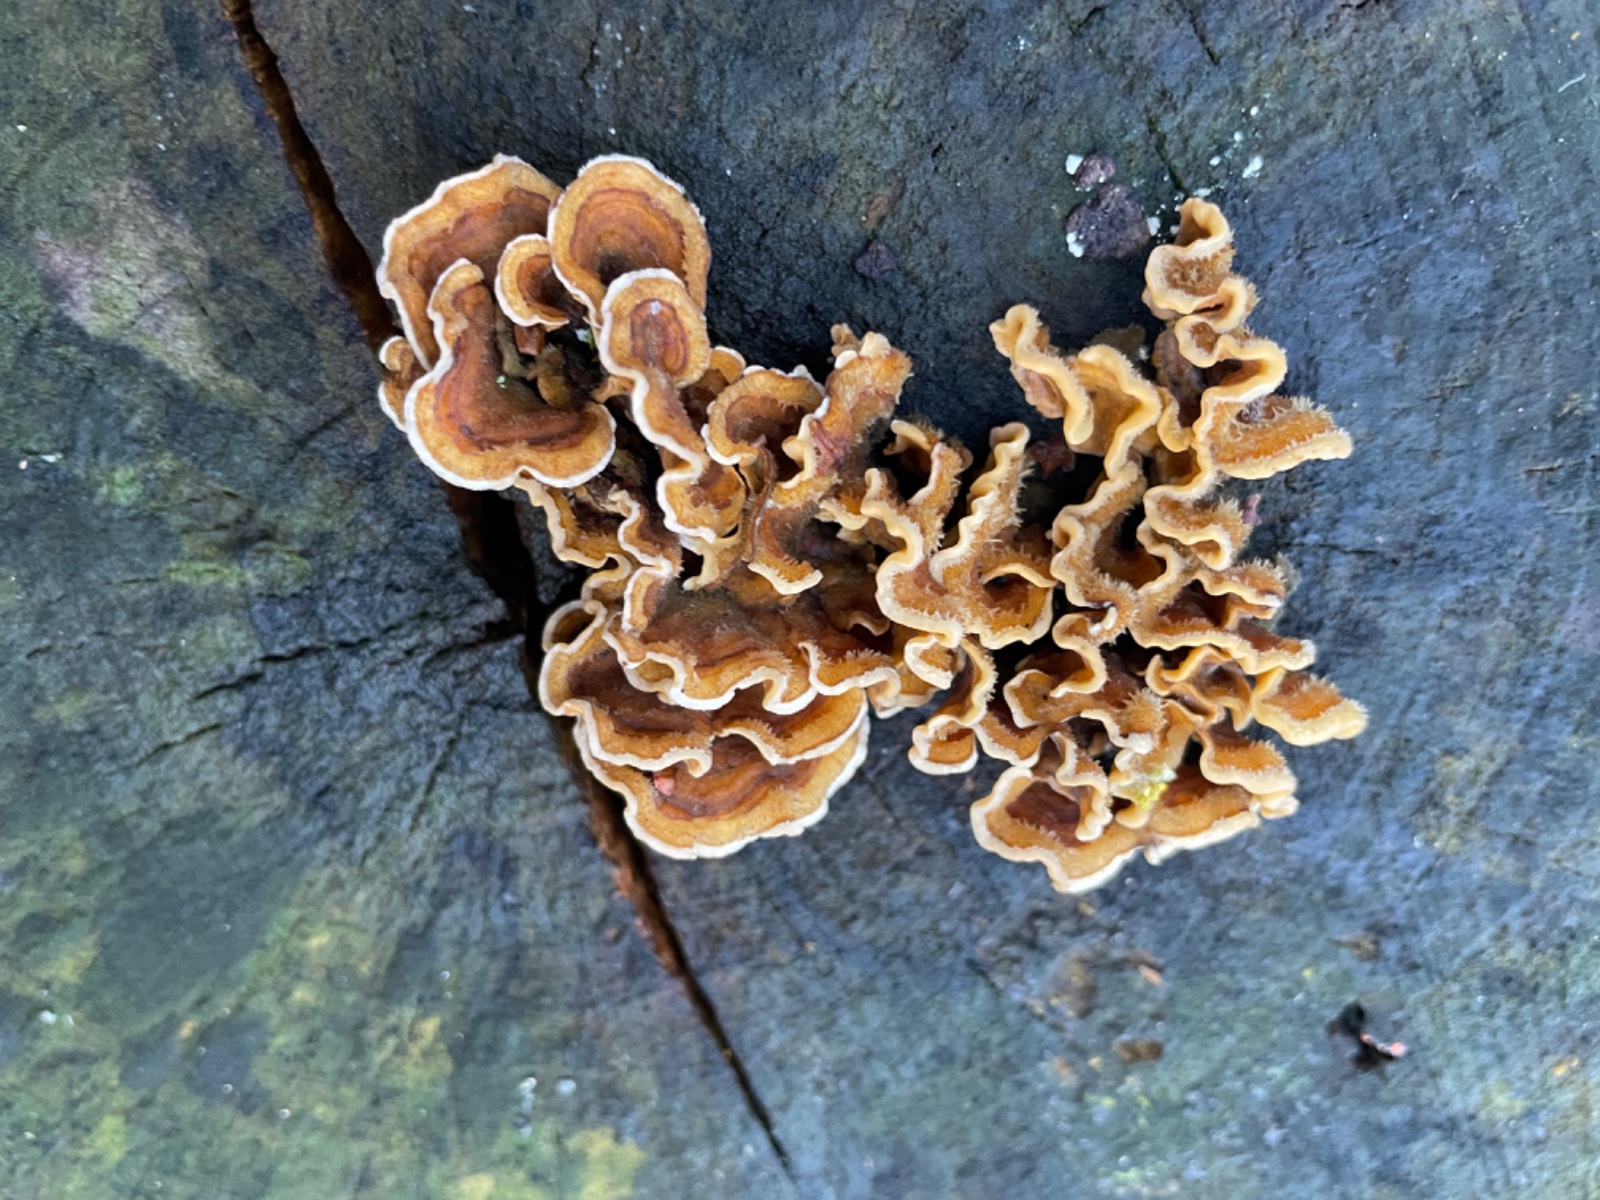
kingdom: Fungi
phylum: Basidiomycota
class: Agaricomycetes
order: Russulales
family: Stereaceae
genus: Stereum
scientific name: Stereum hirsutum
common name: håret lædersvamp
